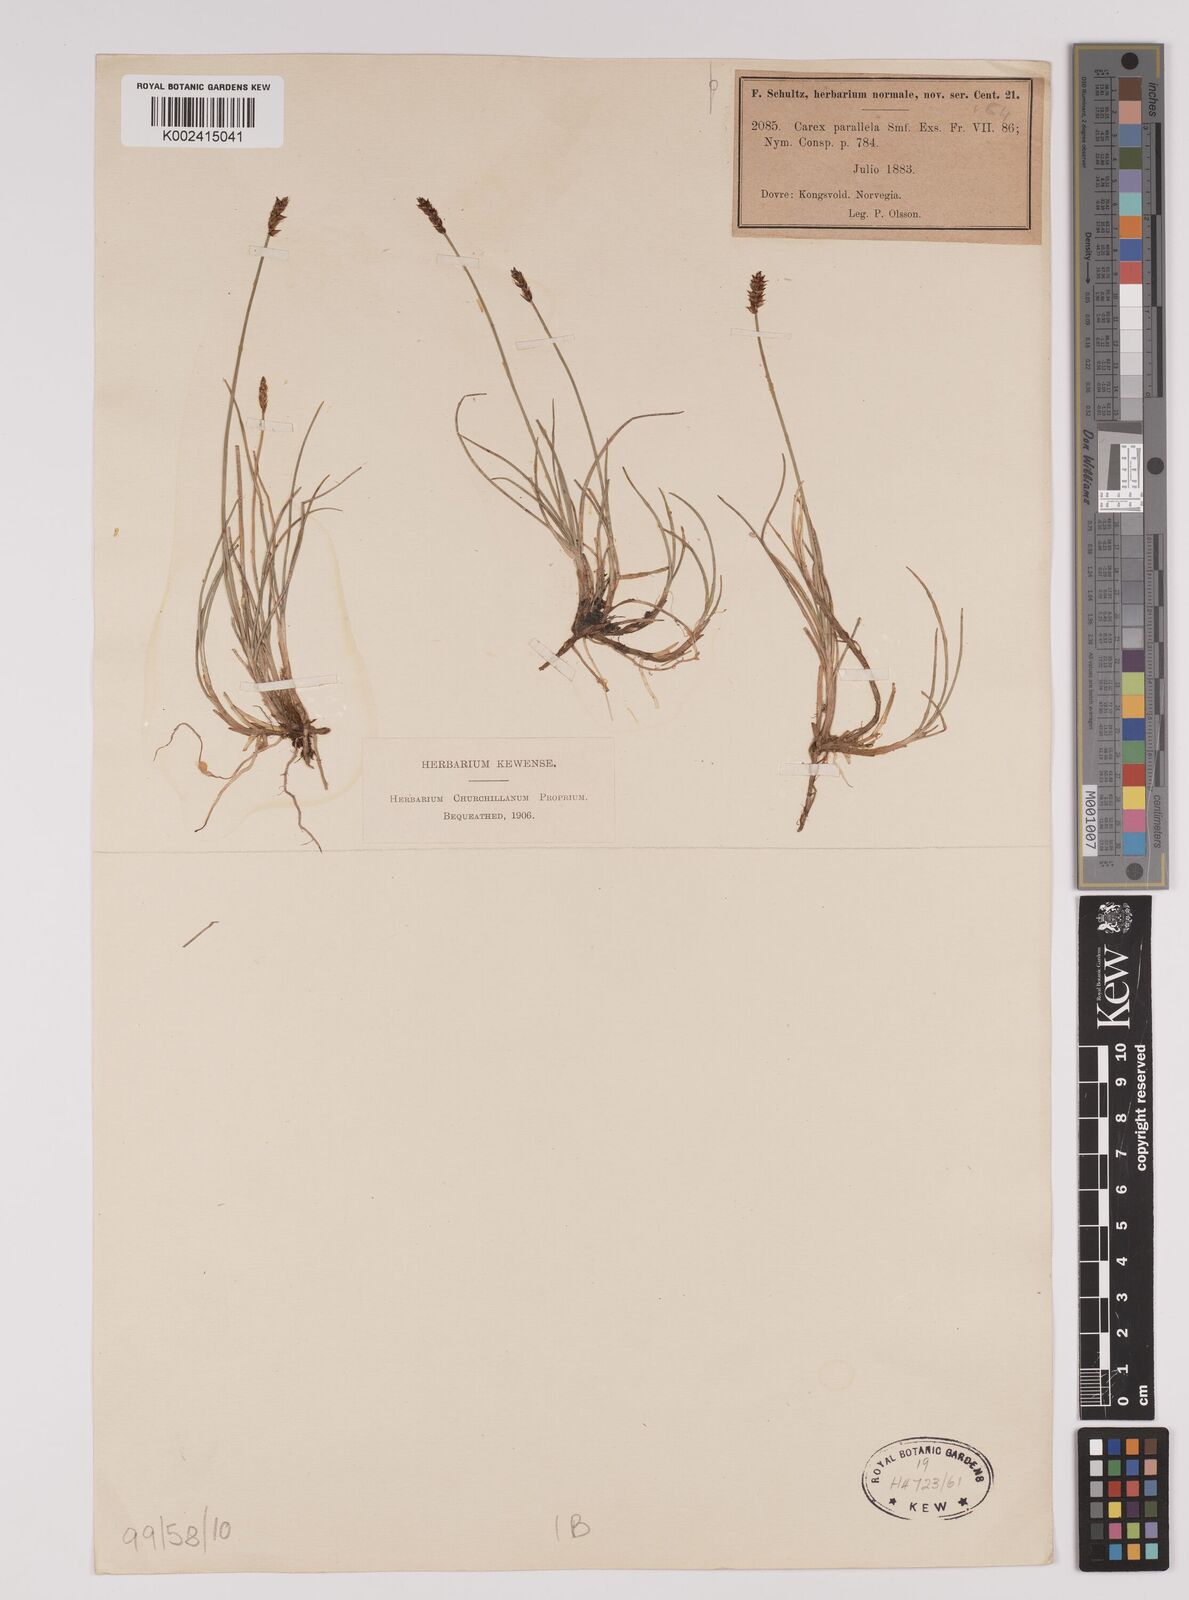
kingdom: Plantae
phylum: Tracheophyta
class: Liliopsida
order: Poales
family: Cyperaceae
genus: Carex
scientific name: Carex parallela
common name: Parallel sedge
